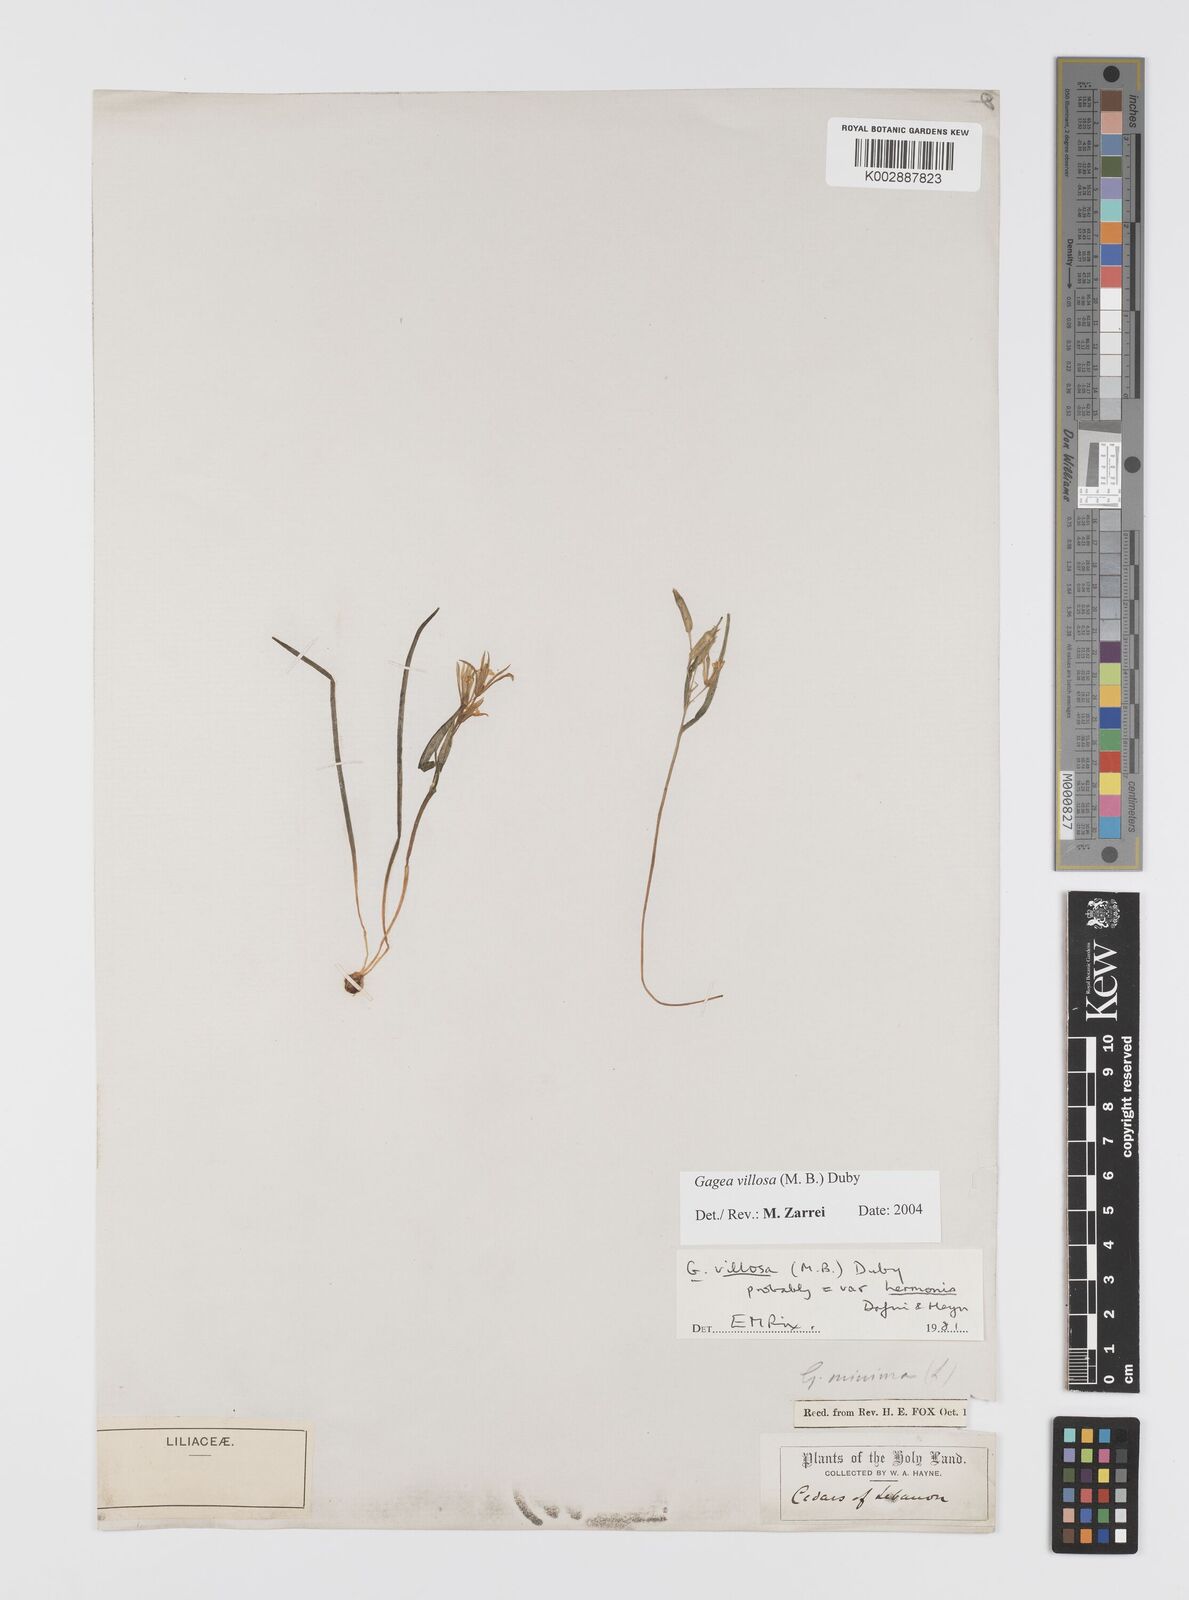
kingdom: Plantae
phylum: Tracheophyta
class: Liliopsida
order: Liliales
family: Liliaceae
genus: Gagea
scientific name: Gagea minima
